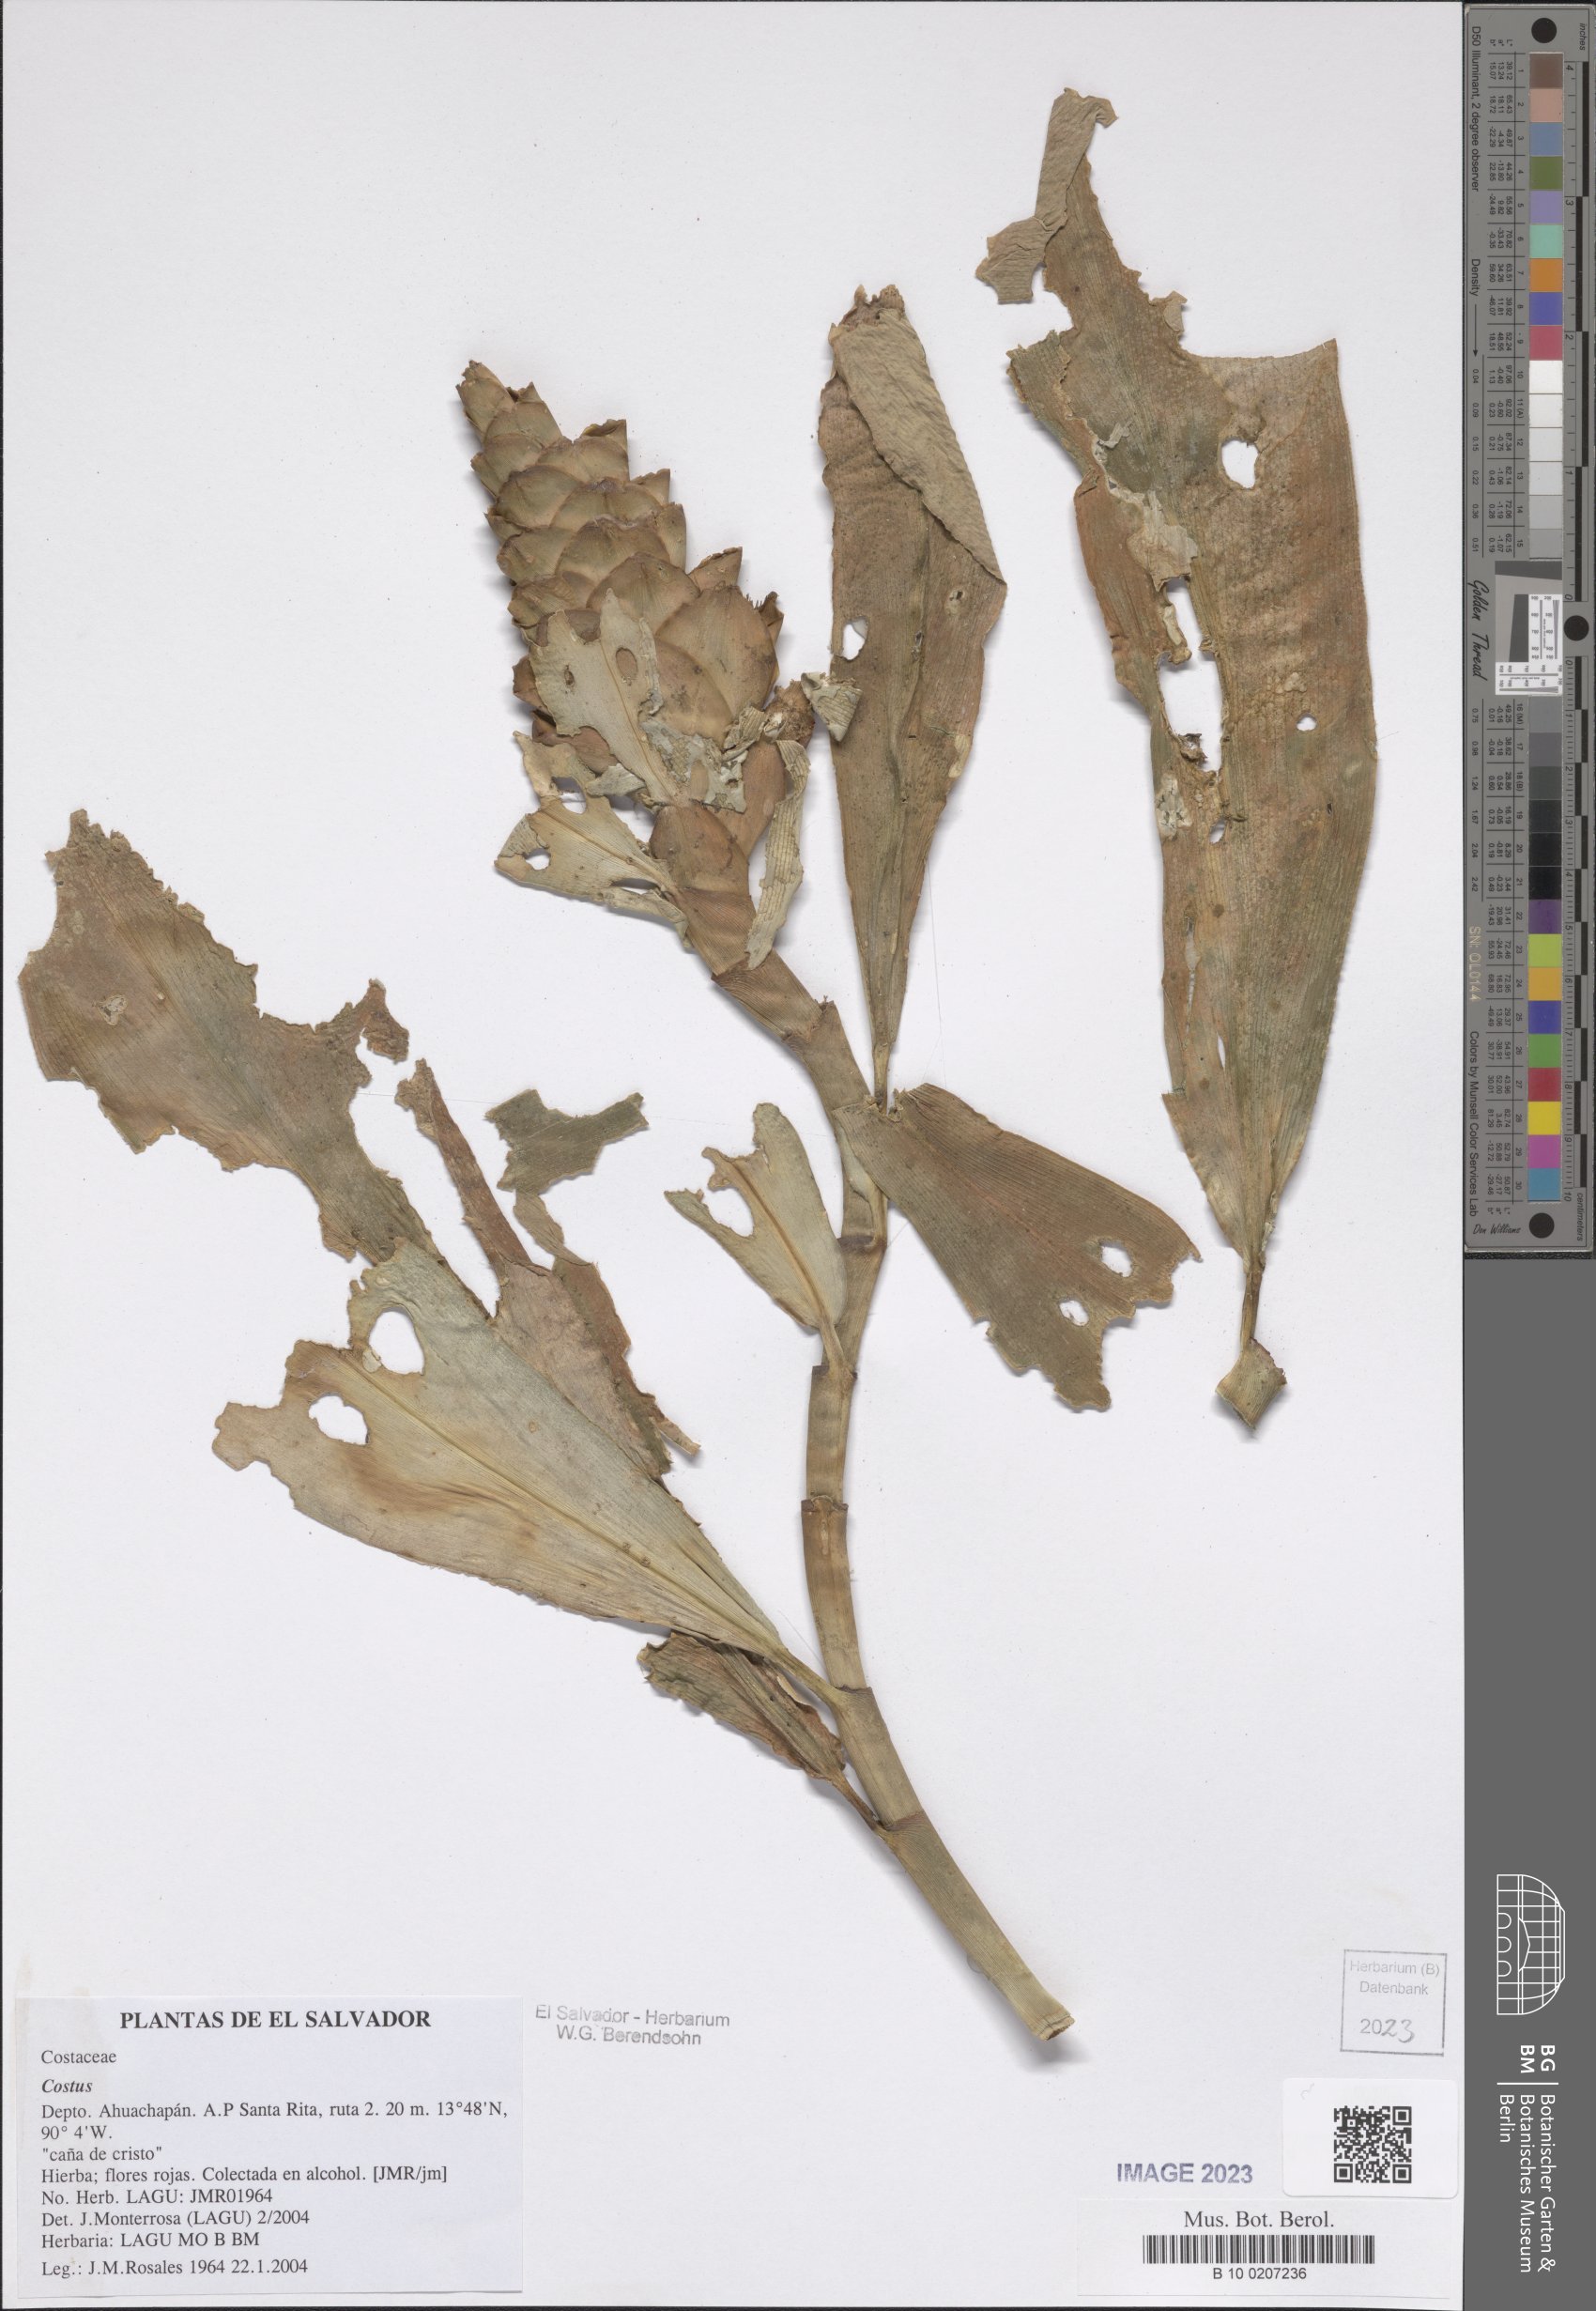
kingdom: Plantae
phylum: Tracheophyta
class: Liliopsida
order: Zingiberales
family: Costaceae
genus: Costus
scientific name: Costus
